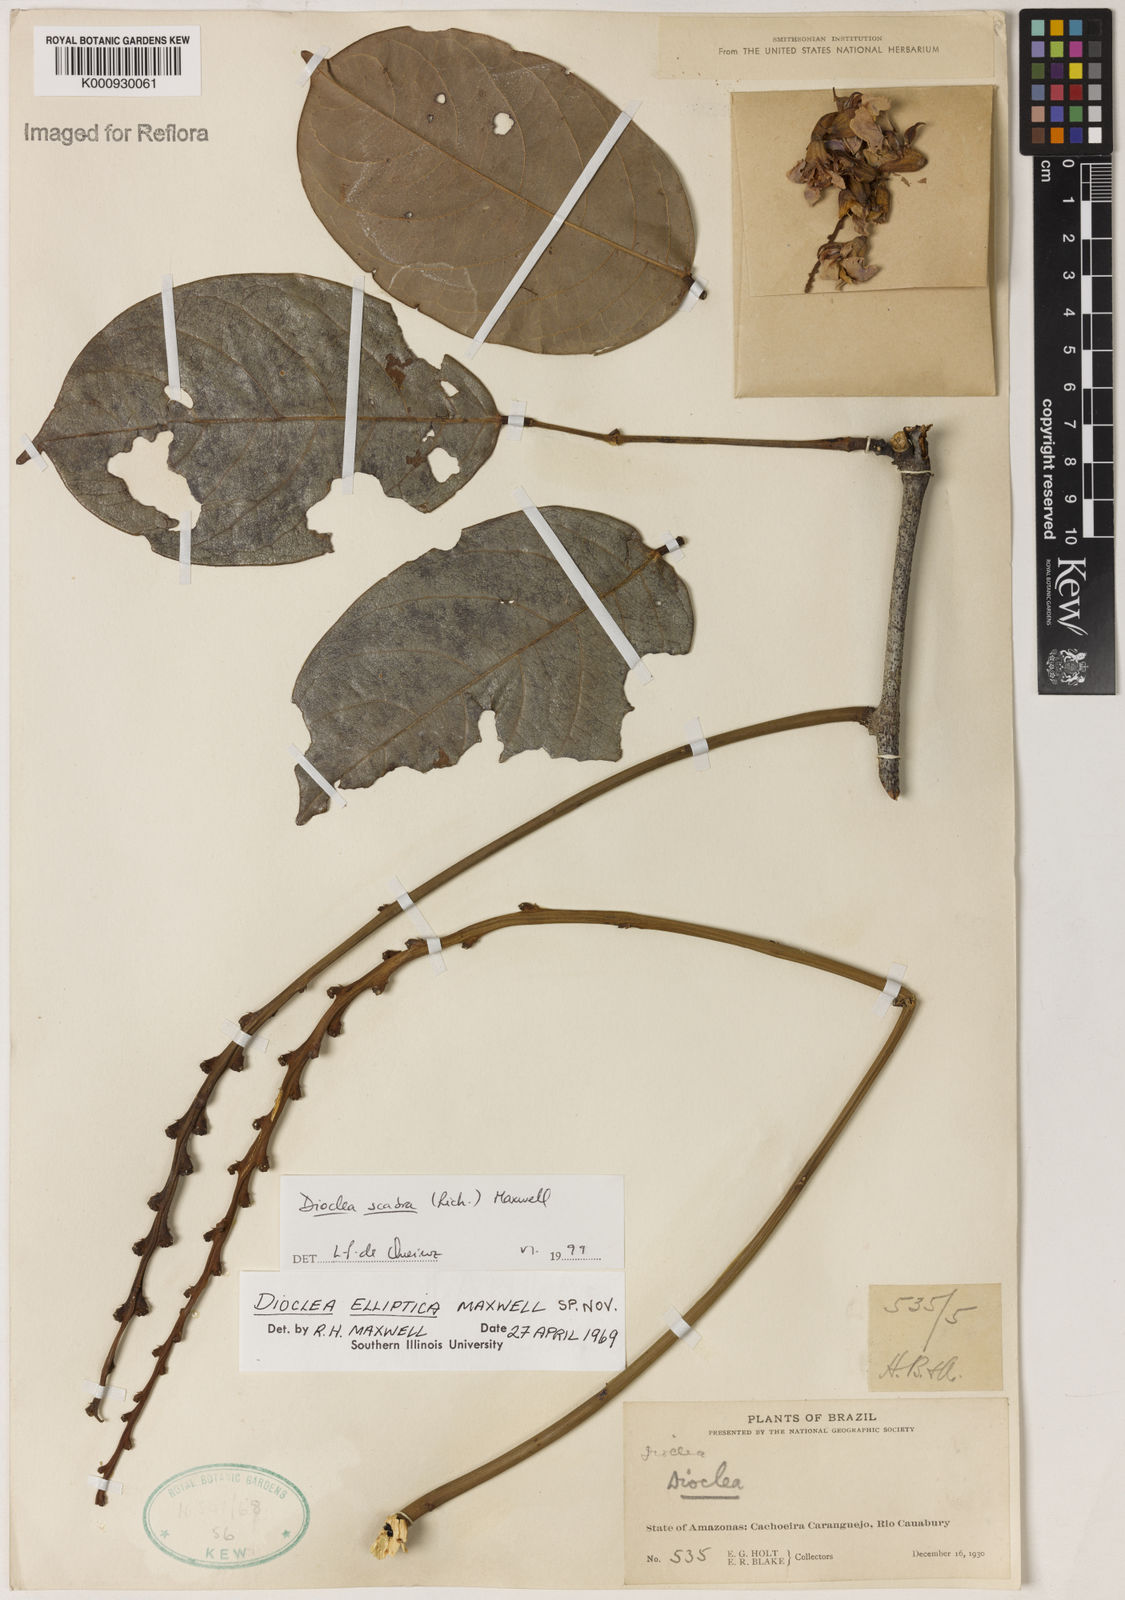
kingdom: Plantae
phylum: Tracheophyta
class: Magnoliopsida
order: Fabales
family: Fabaceae
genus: Macropsychanthus
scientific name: Macropsychanthus scaber
